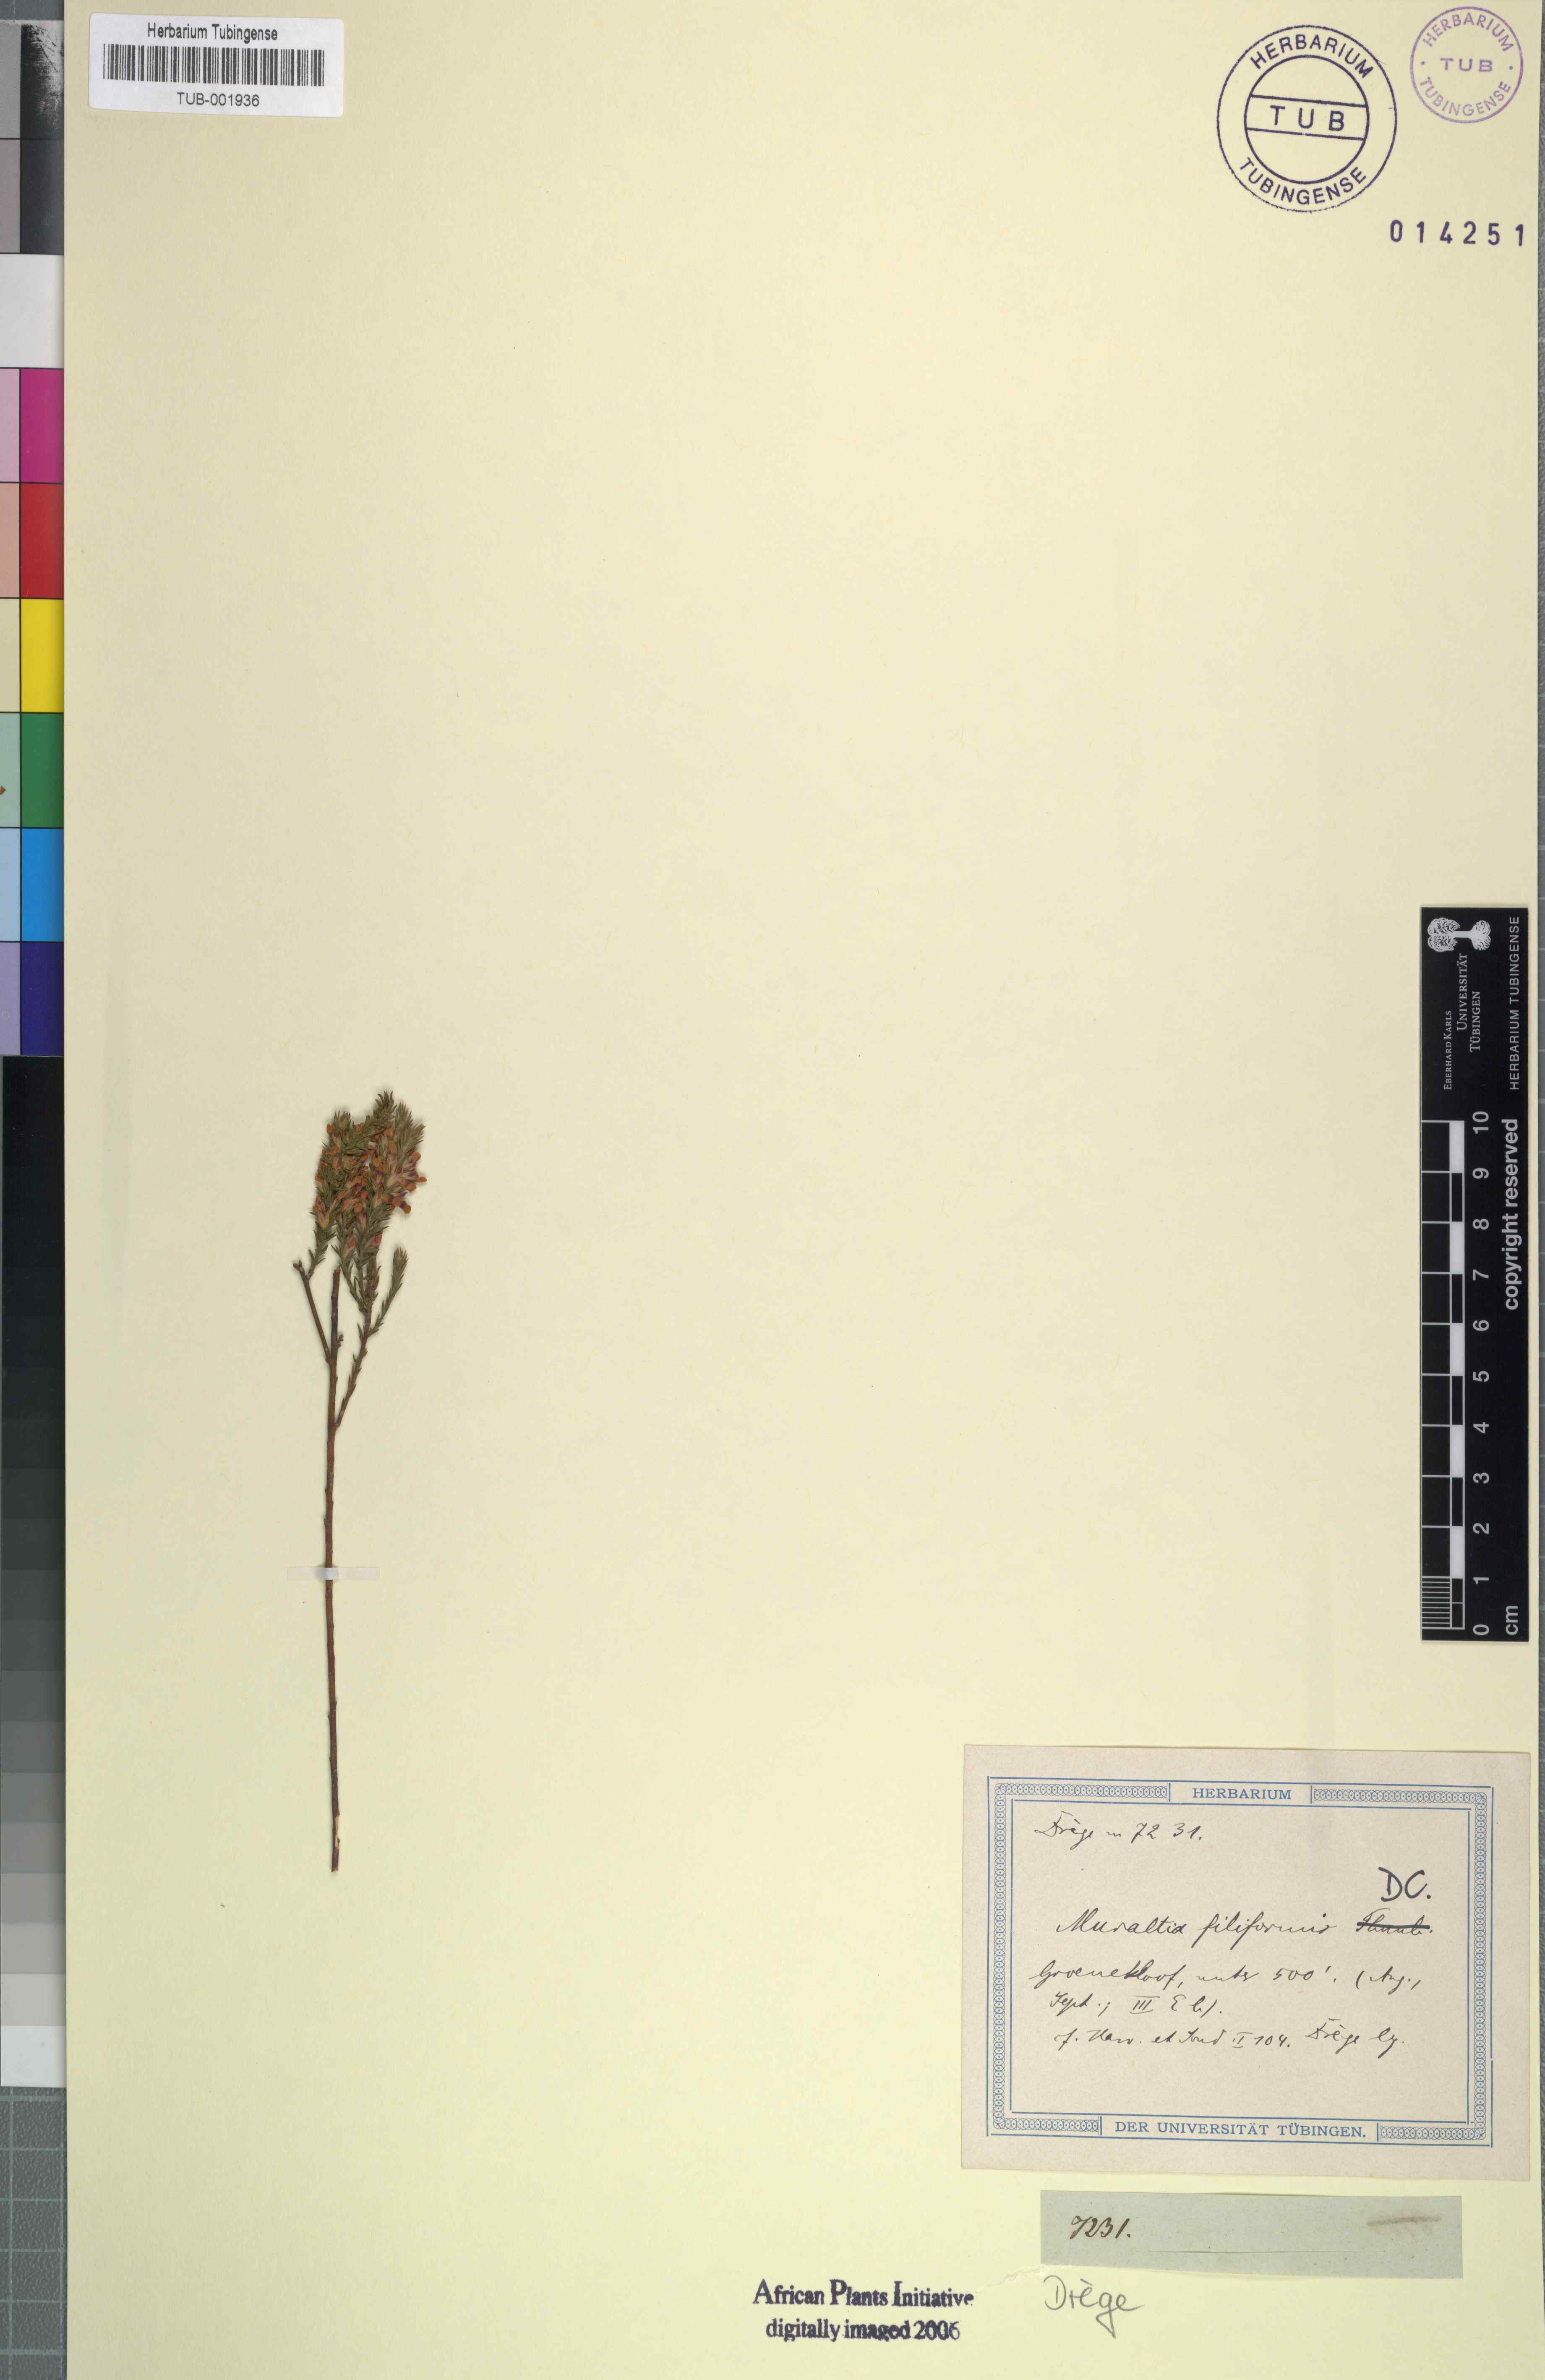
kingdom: Plantae
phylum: Tracheophyta
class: Magnoliopsida
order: Fabales
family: Polygalaceae
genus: Muraltia
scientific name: Muraltia filiformis
